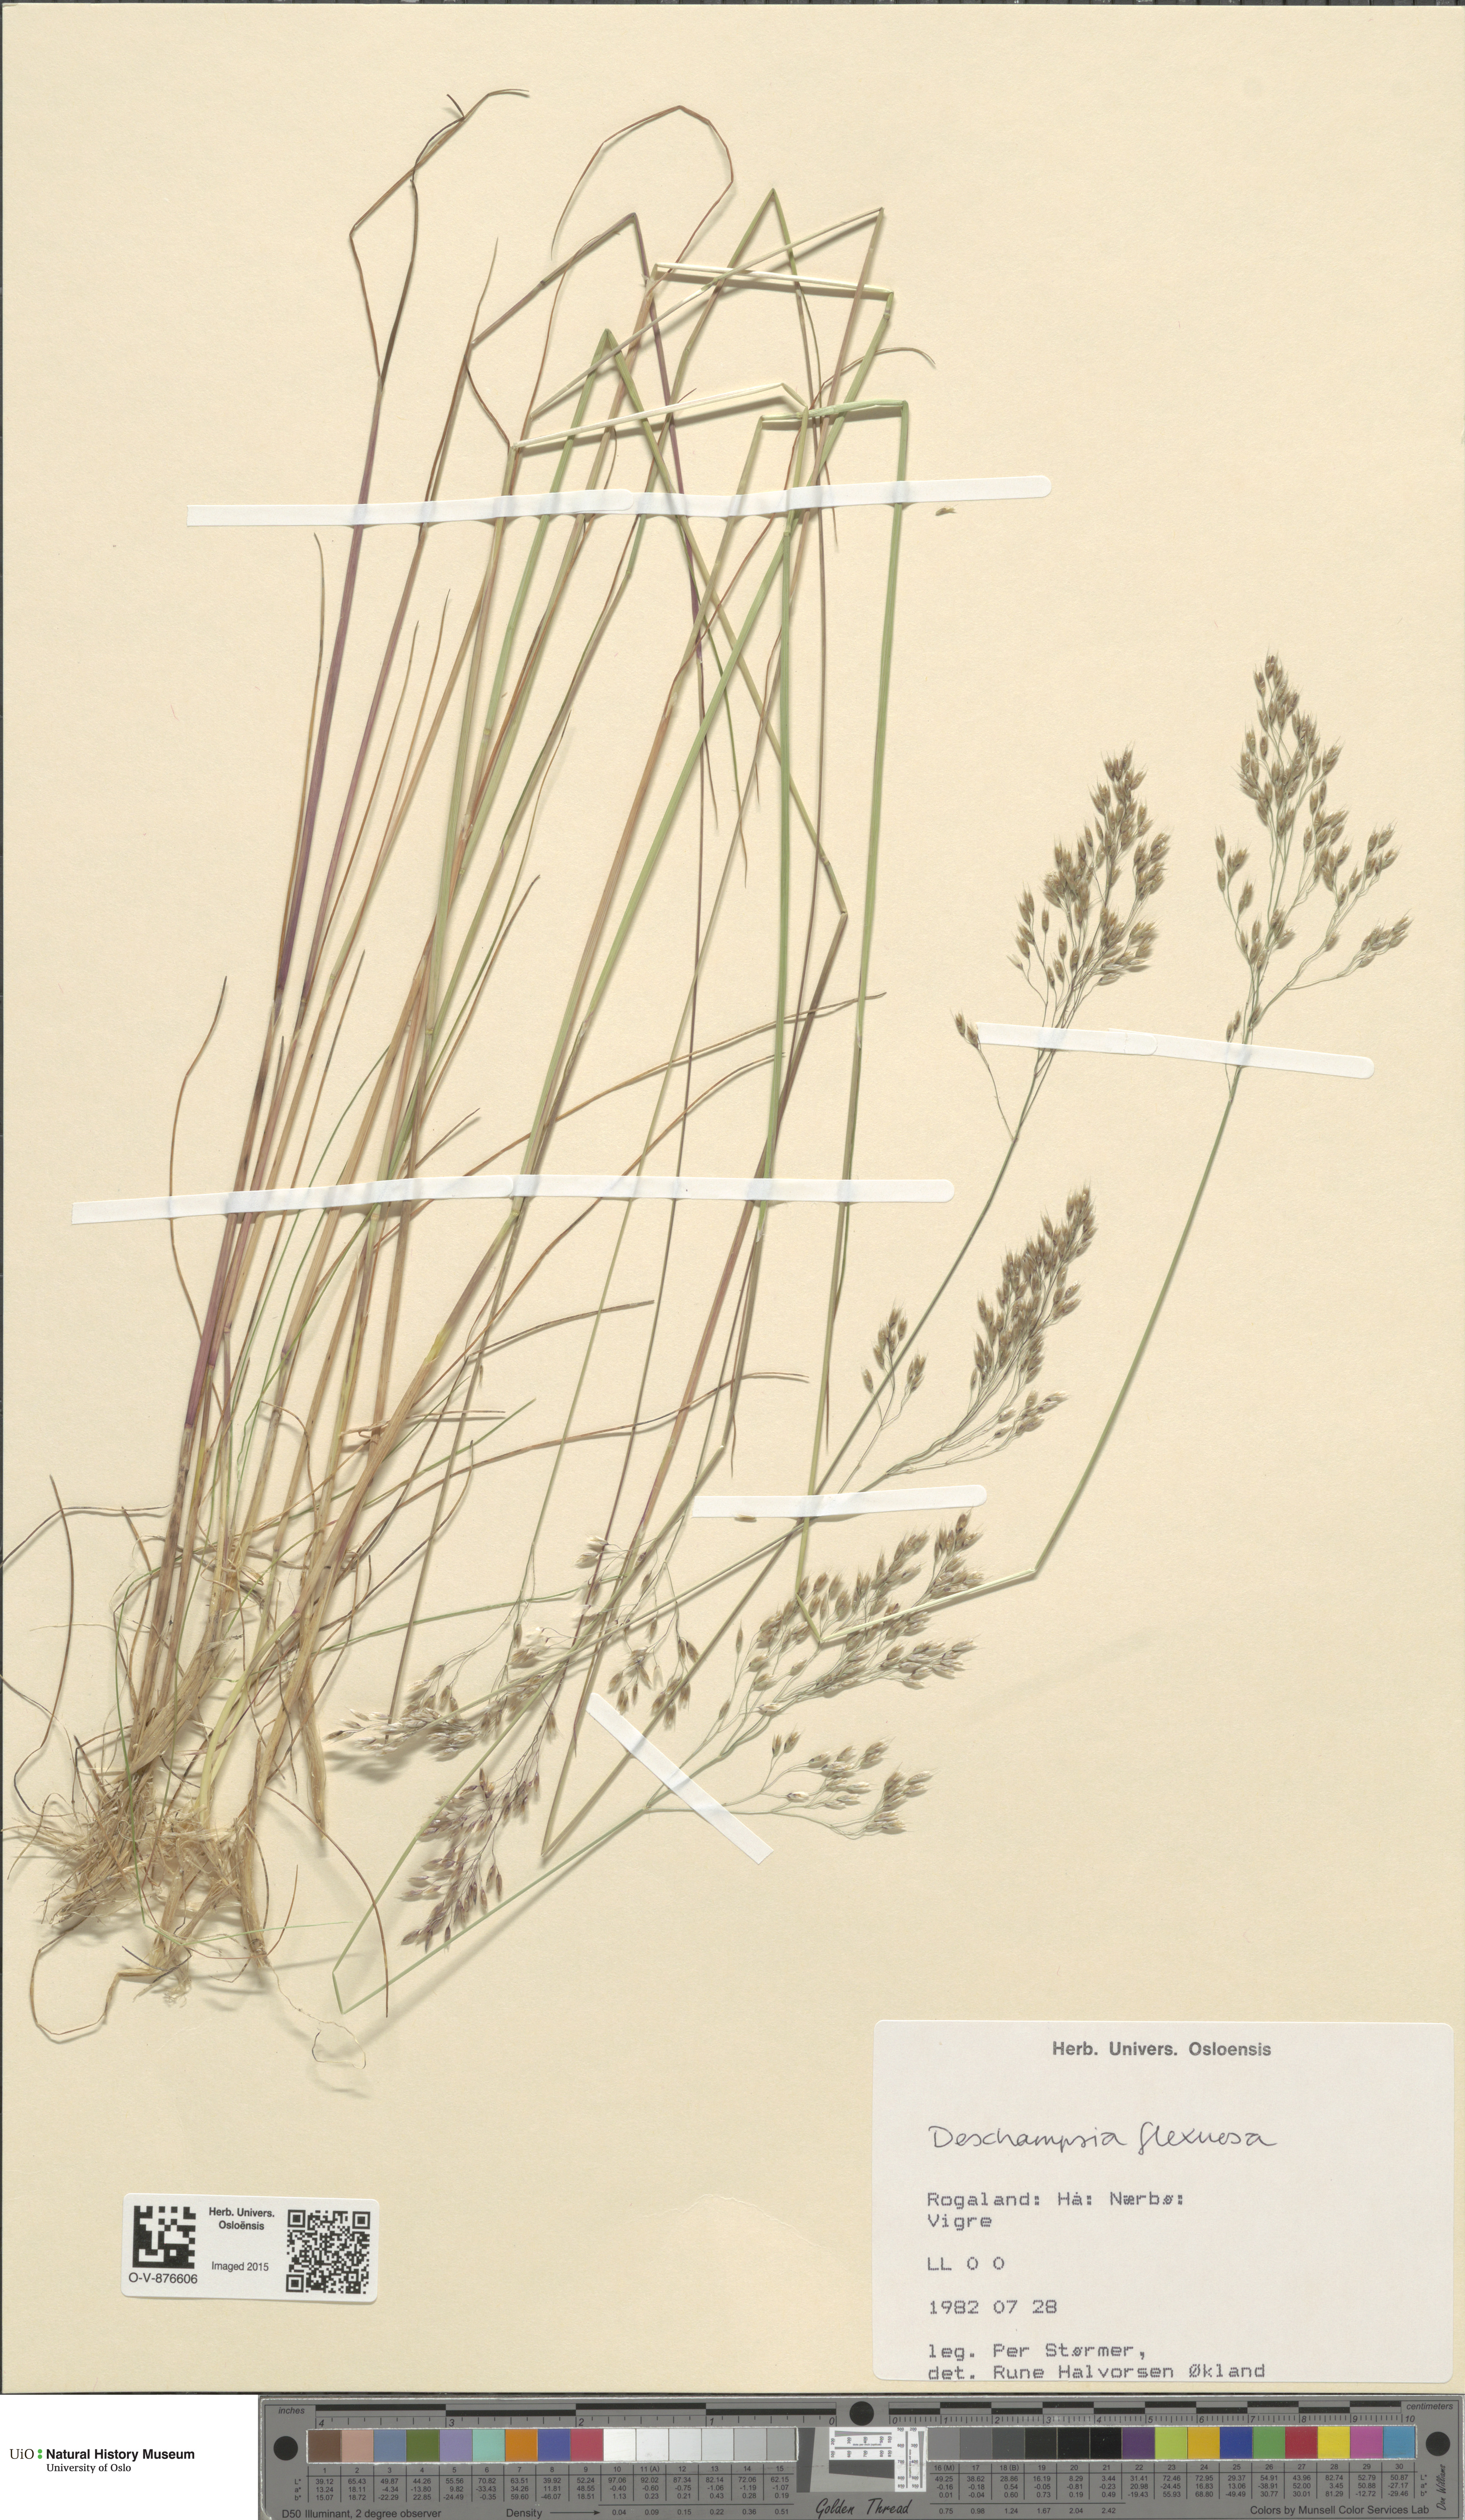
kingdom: Plantae
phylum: Tracheophyta
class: Liliopsida
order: Poales
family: Poaceae
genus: Avenella
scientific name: Avenella flexuosa
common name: Wavy hairgrass
